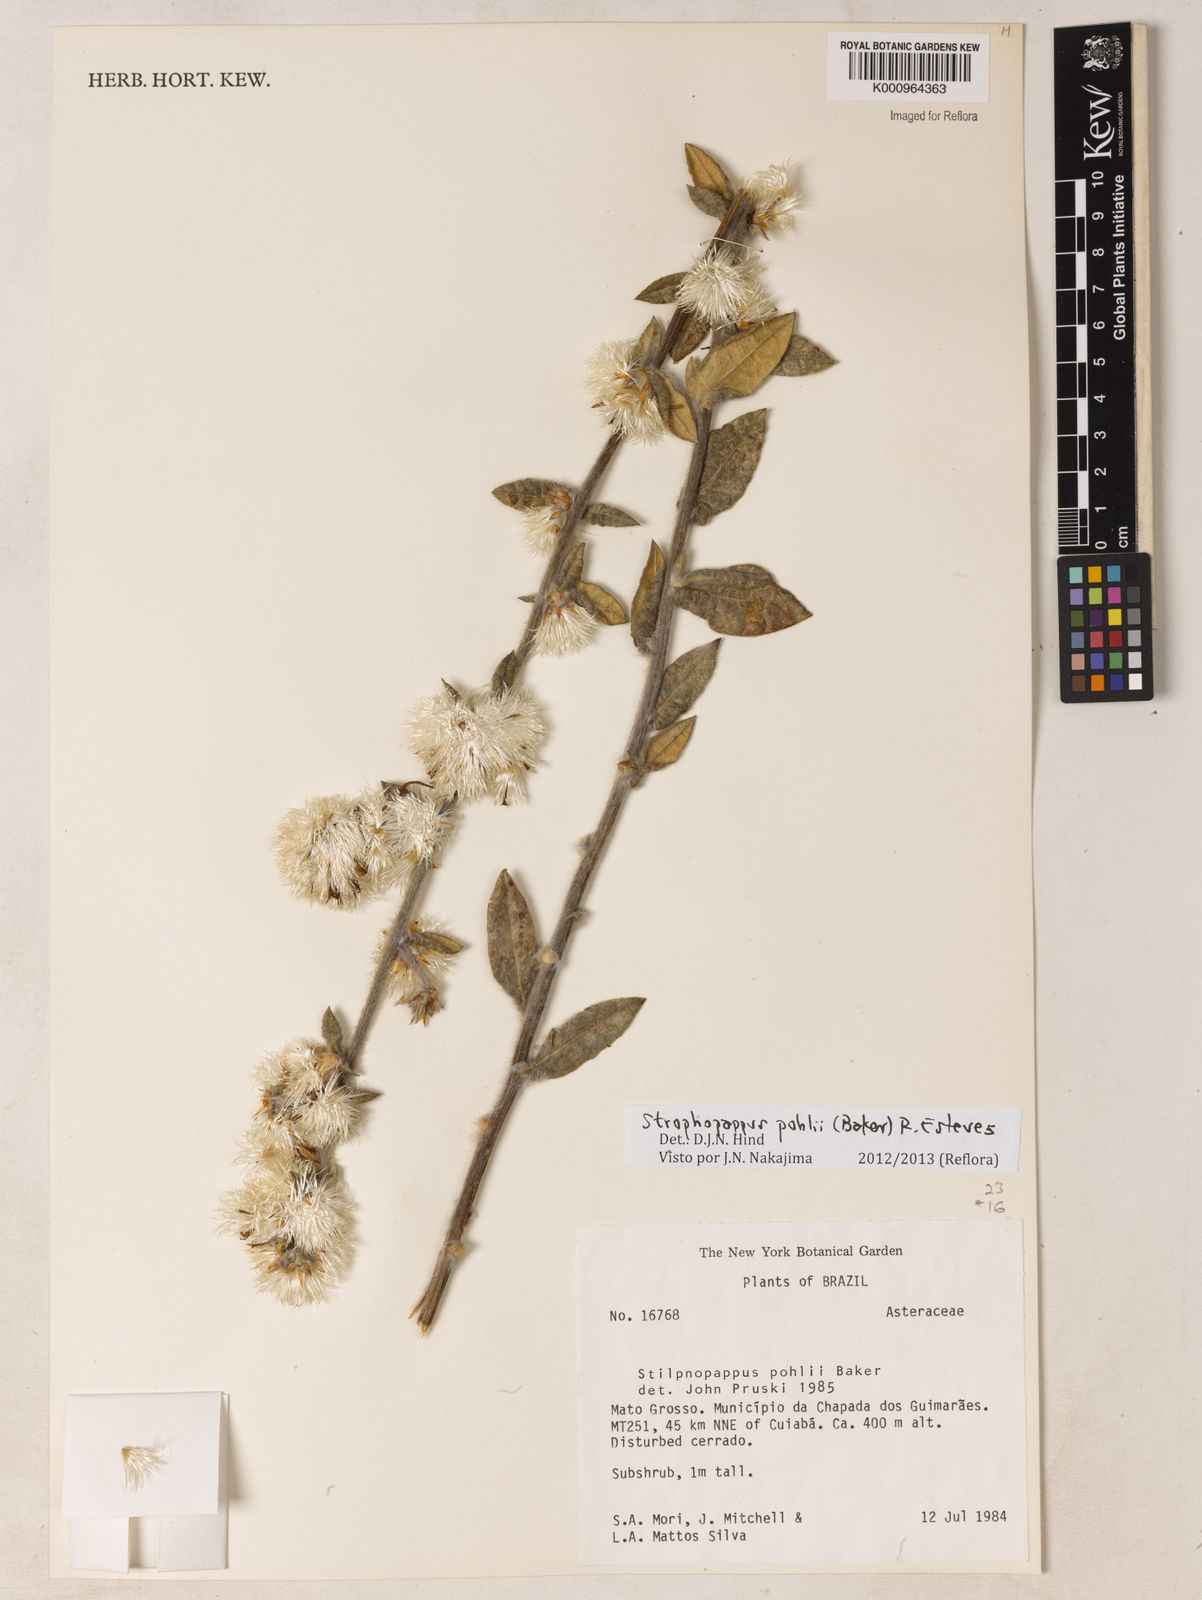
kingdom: Plantae
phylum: Tracheophyta
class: Magnoliopsida
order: Asterales
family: Asteraceae
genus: Stilpnopappus
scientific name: Stilpnopappus pohlii
